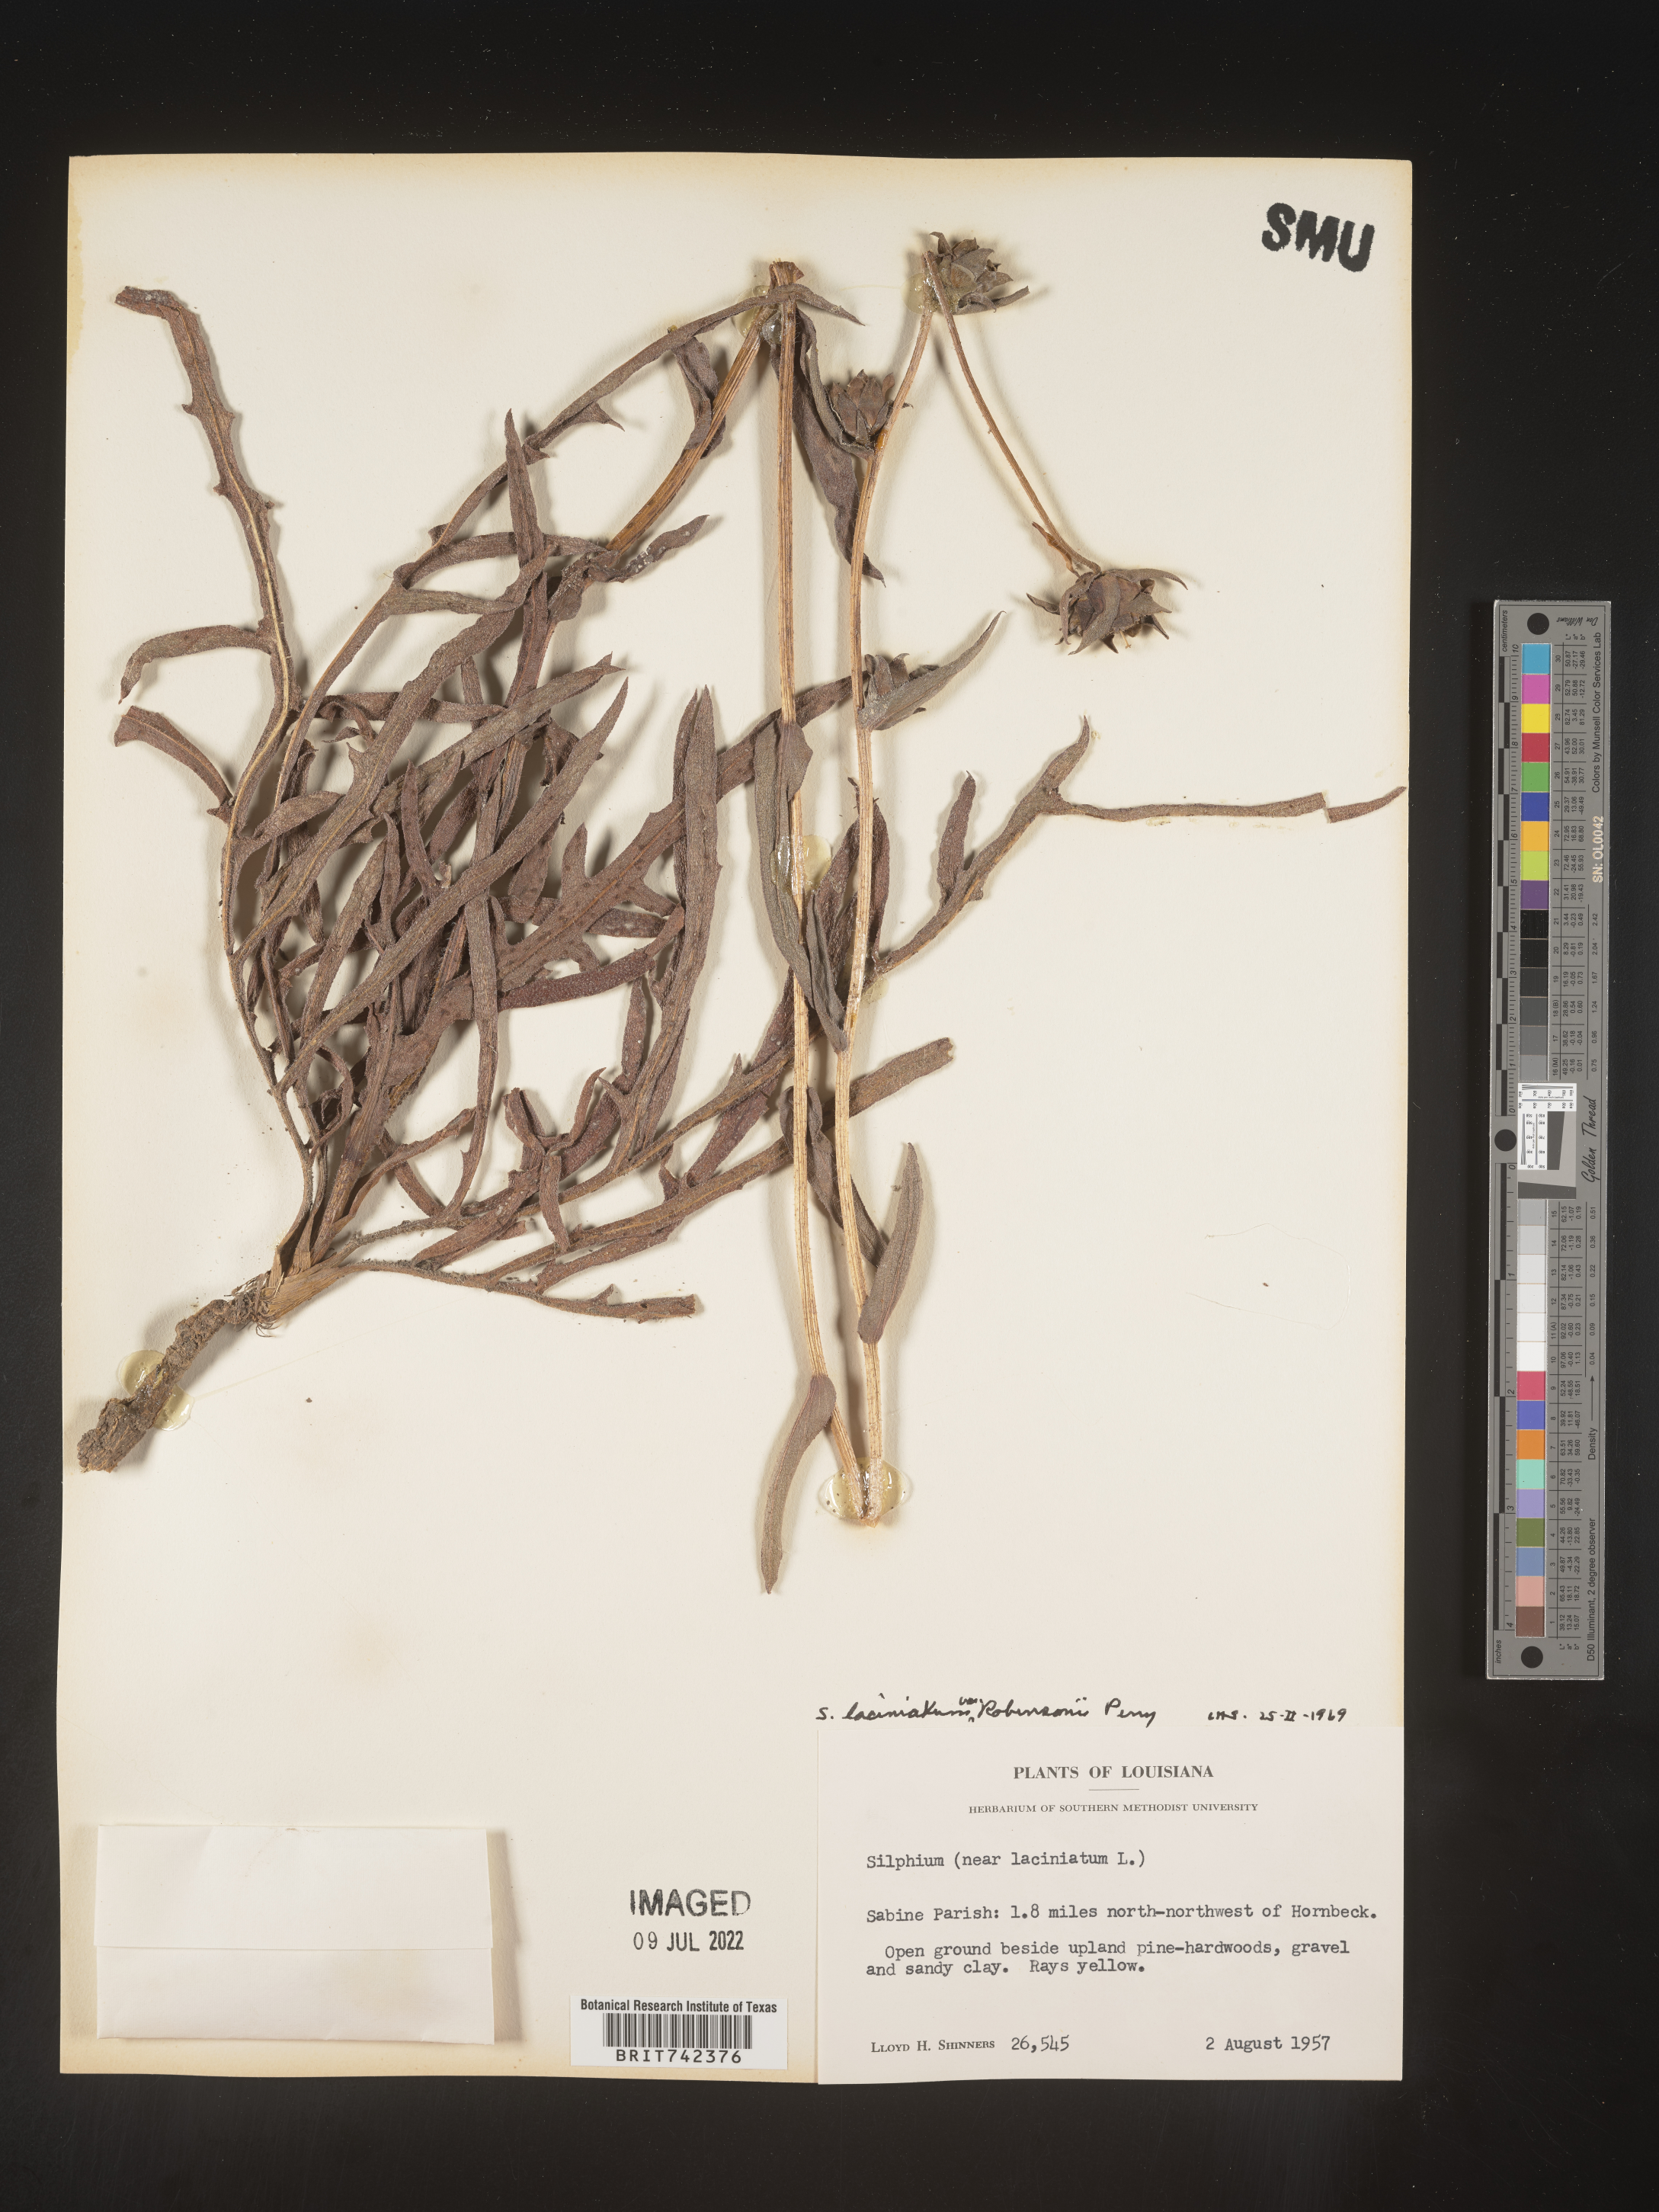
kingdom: Plantae
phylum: Tracheophyta
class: Magnoliopsida
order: Asterales
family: Asteraceae
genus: Silphium
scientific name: Silphium laciniatum
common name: Polarplant
